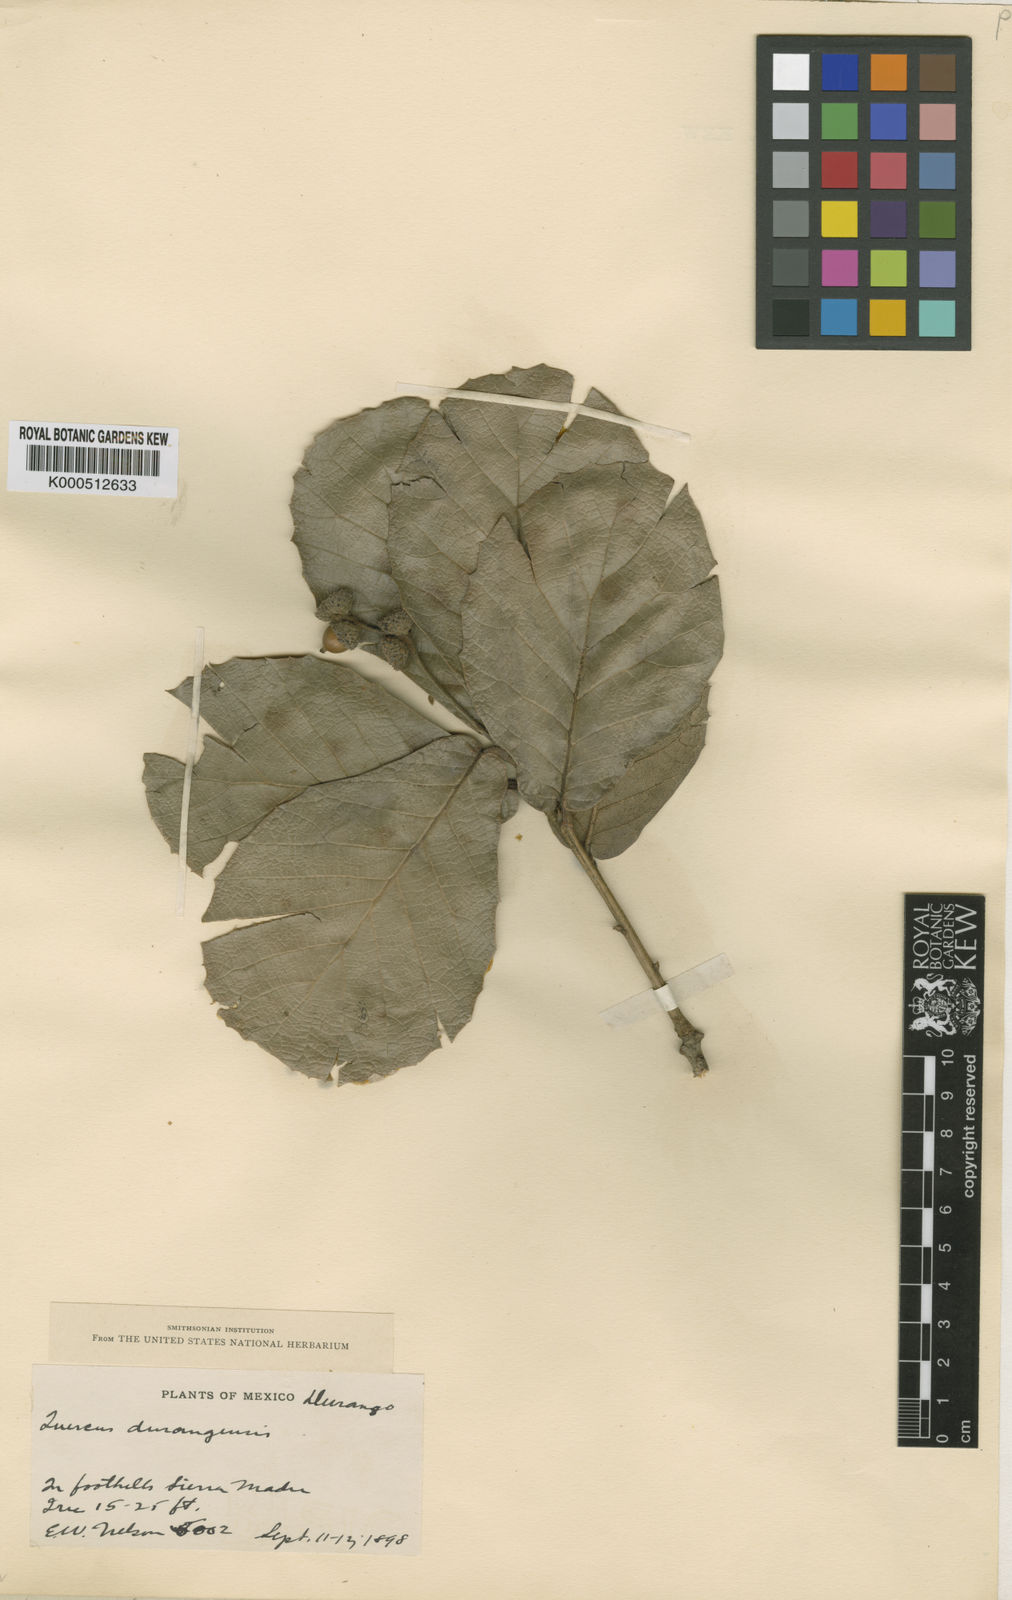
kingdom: Plantae
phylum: Tracheophyta
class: Magnoliopsida
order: Fagales
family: Fagaceae
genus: Quercus
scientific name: Quercus rugosa
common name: Netleaf oak
